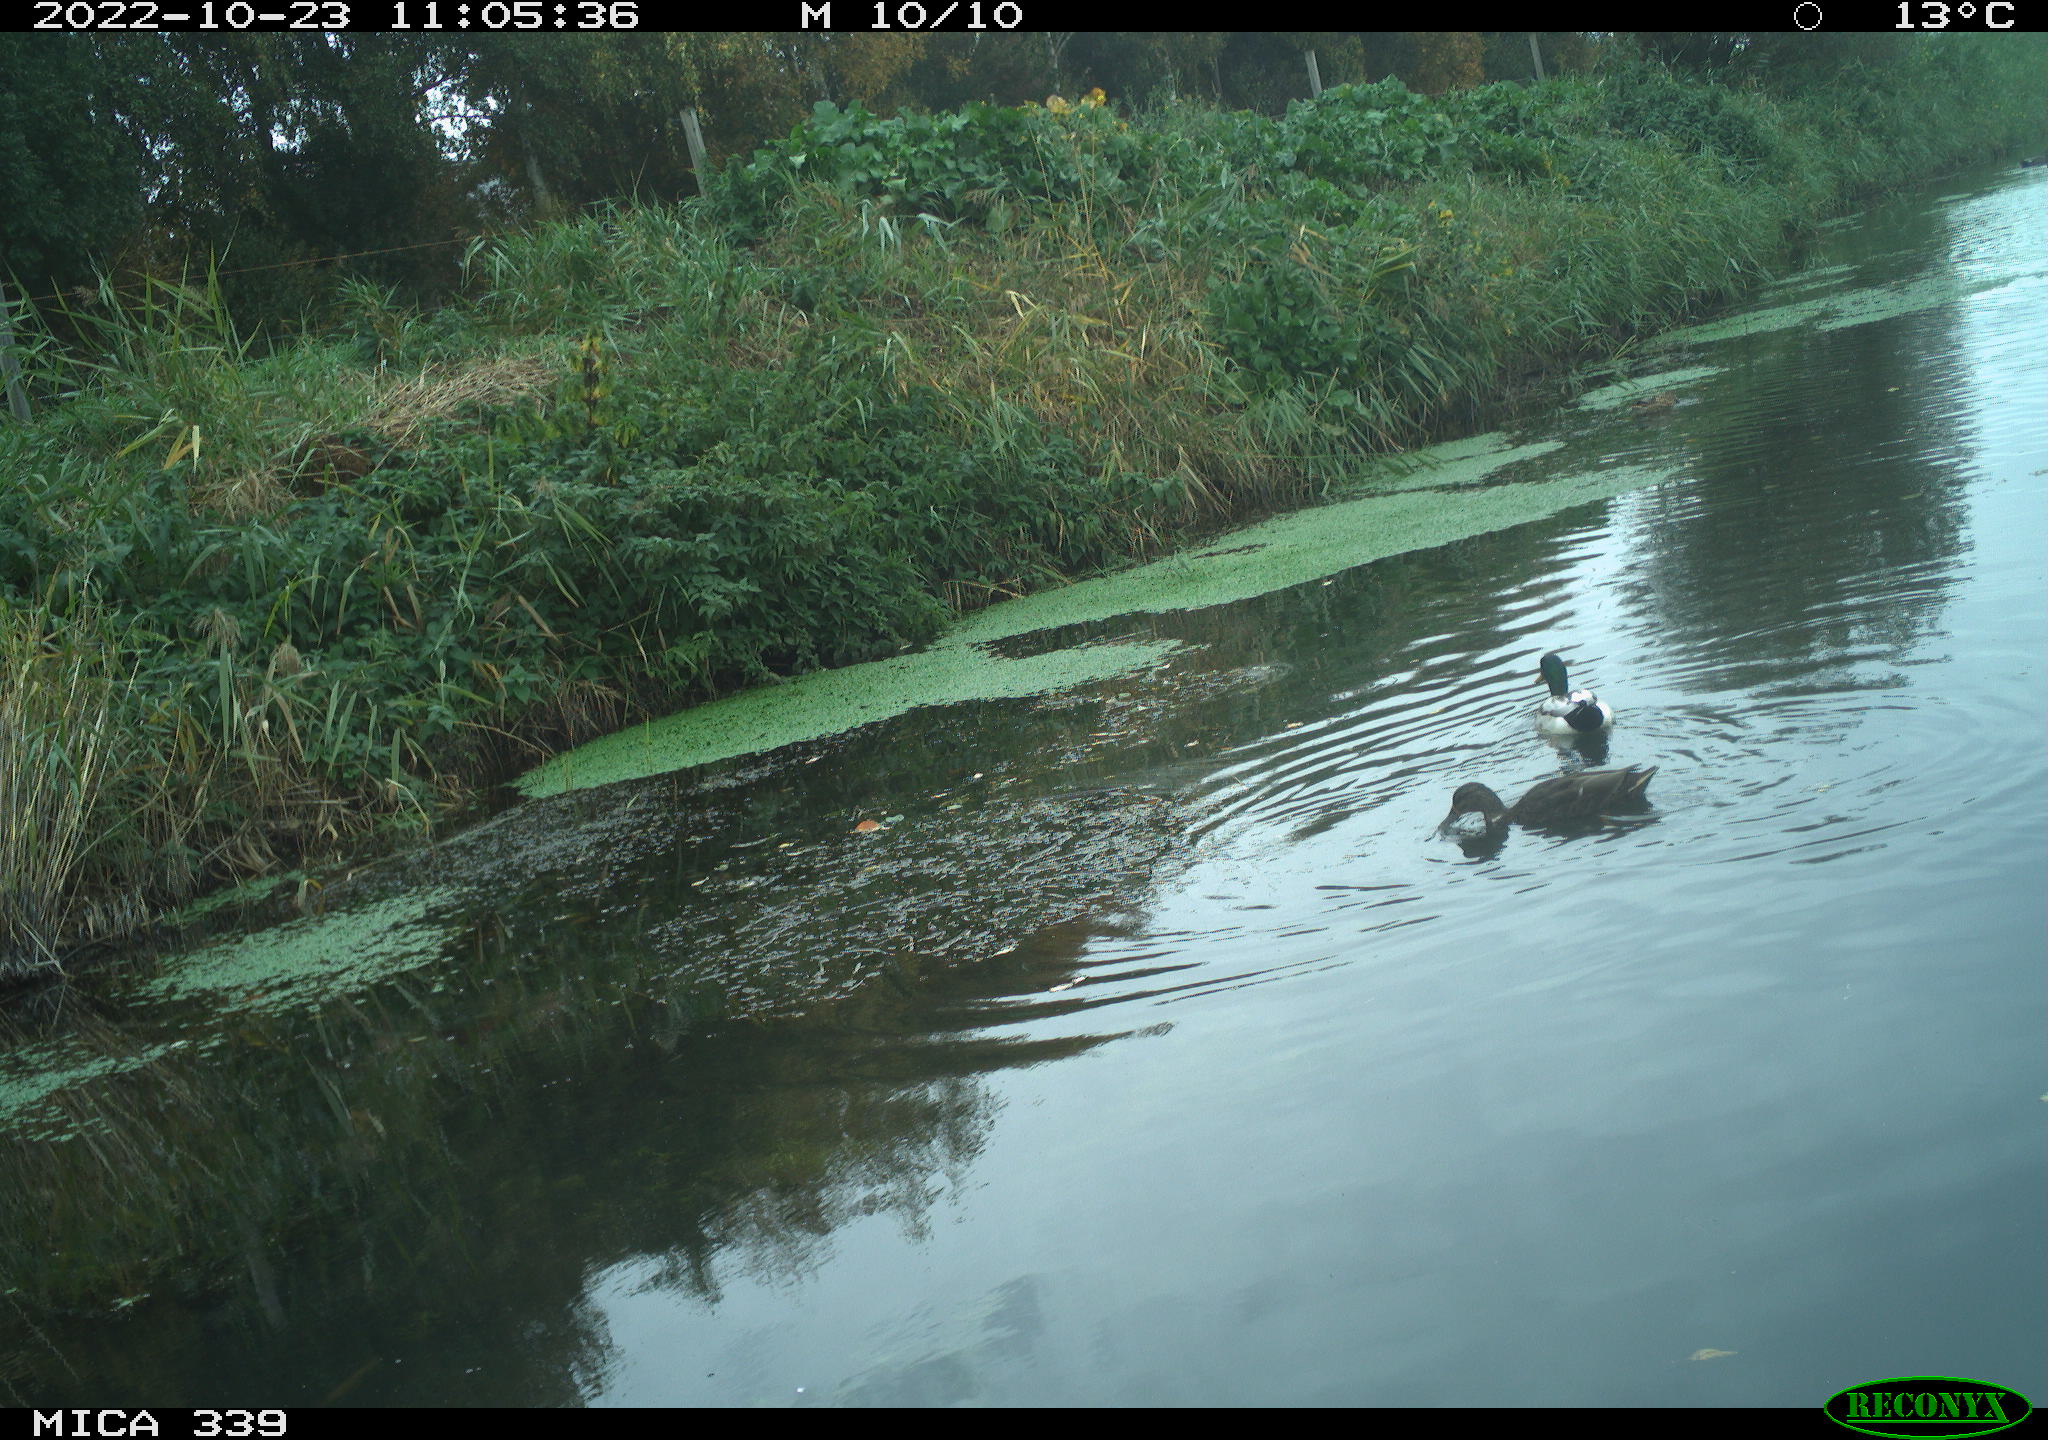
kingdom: Animalia
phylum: Chordata
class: Aves
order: Anseriformes
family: Anatidae
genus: Anas
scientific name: Anas platyrhynchos
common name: Mallard
